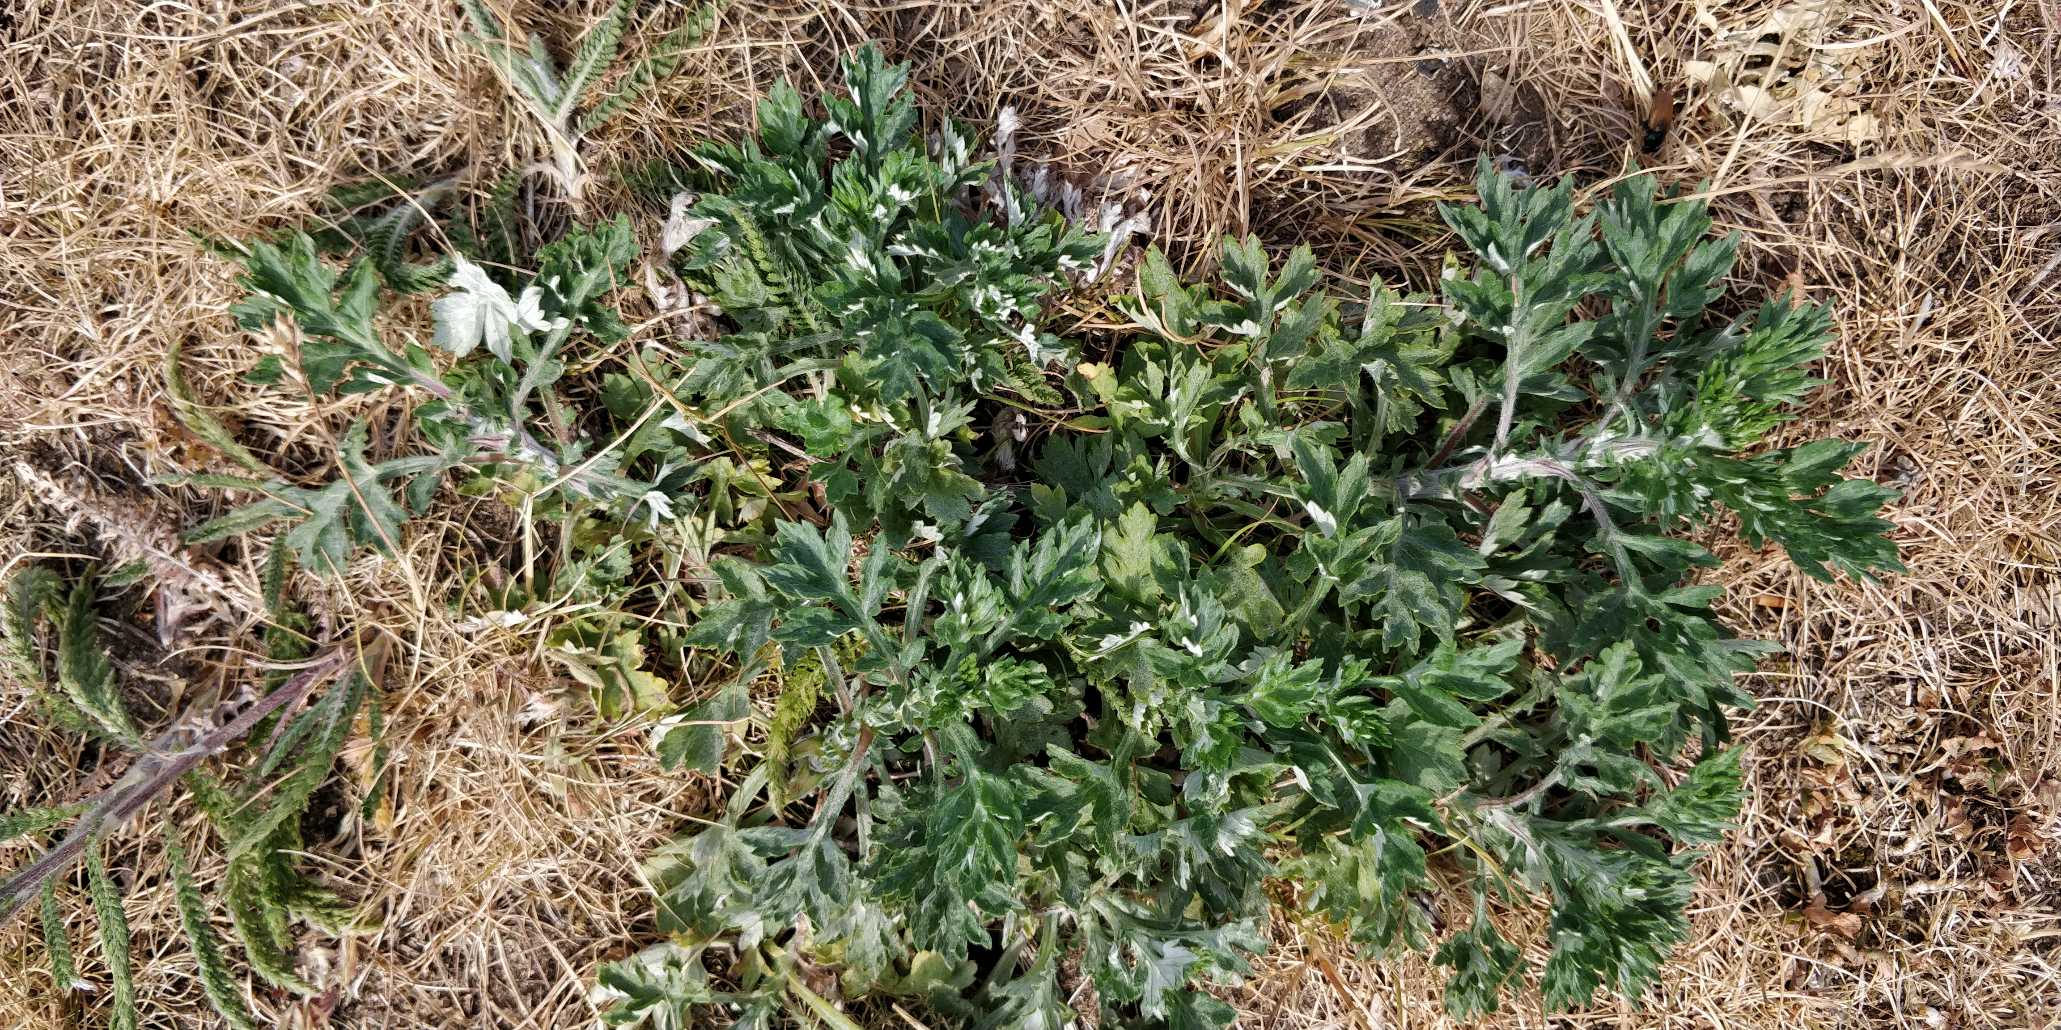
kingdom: Plantae
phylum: Tracheophyta
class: Magnoliopsida
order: Asterales
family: Asteraceae
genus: Artemisia
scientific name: Artemisia vulgaris
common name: Grå-bynke
